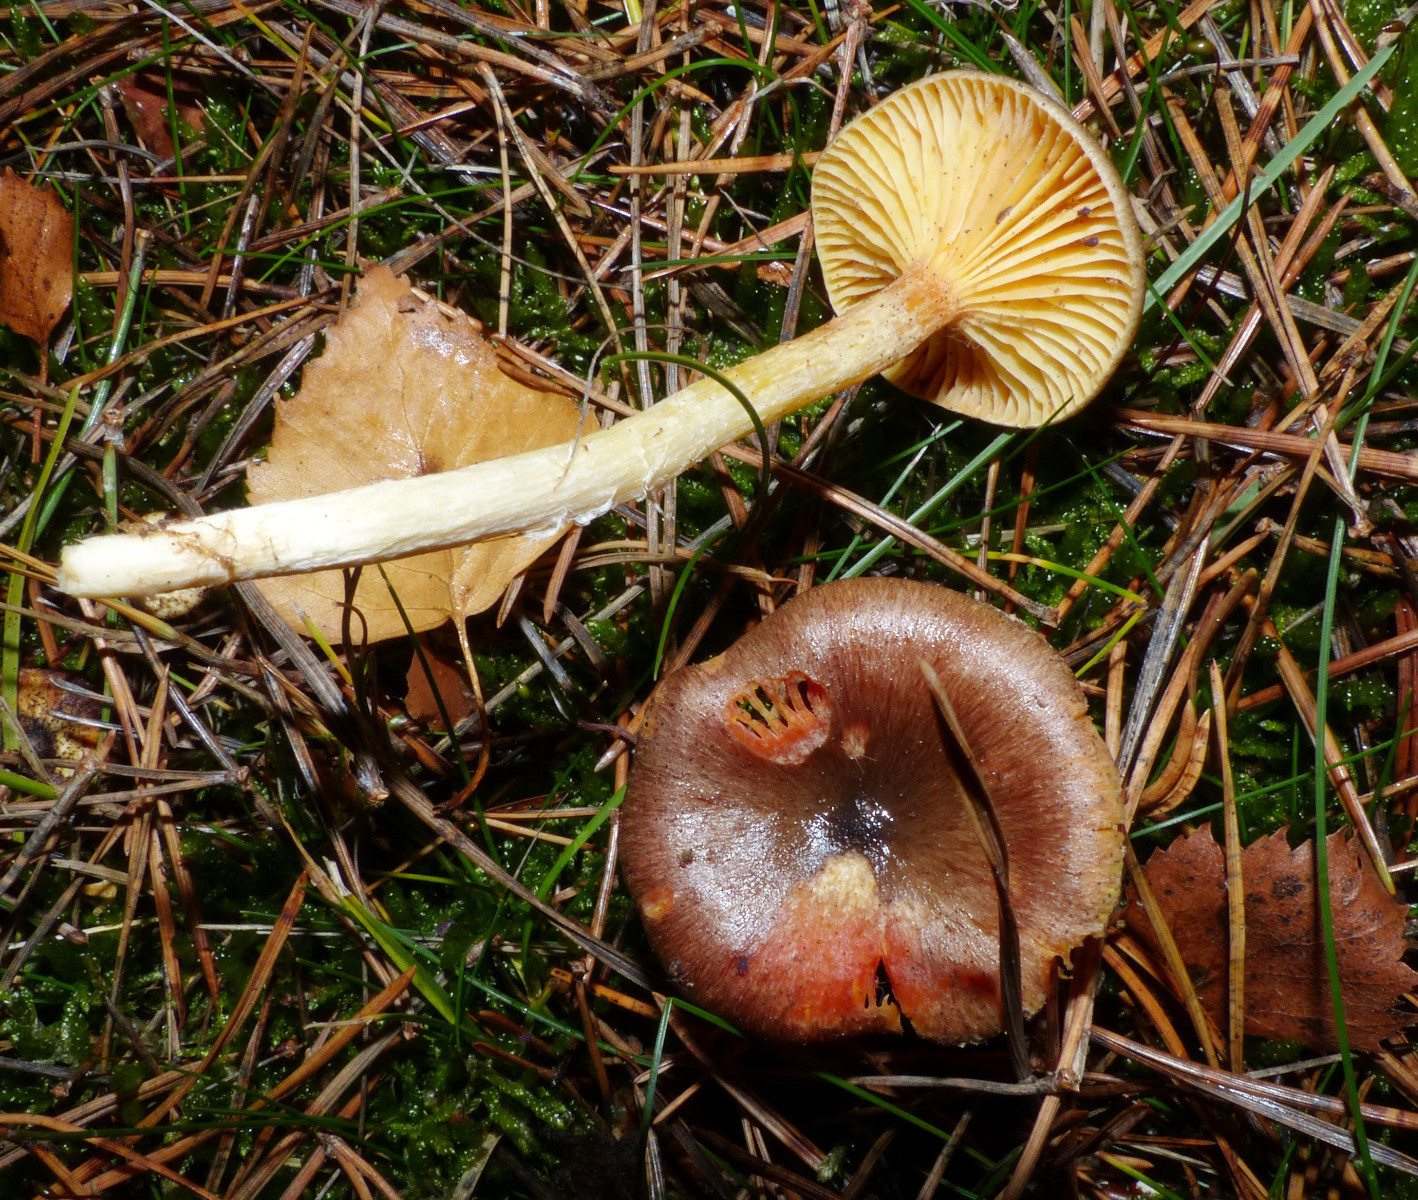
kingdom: Fungi
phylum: Basidiomycota
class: Agaricomycetes
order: Agaricales
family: Hygrophoraceae
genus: Hygrophorus
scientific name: Hygrophorus hypothejus
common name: frost-sneglehat
